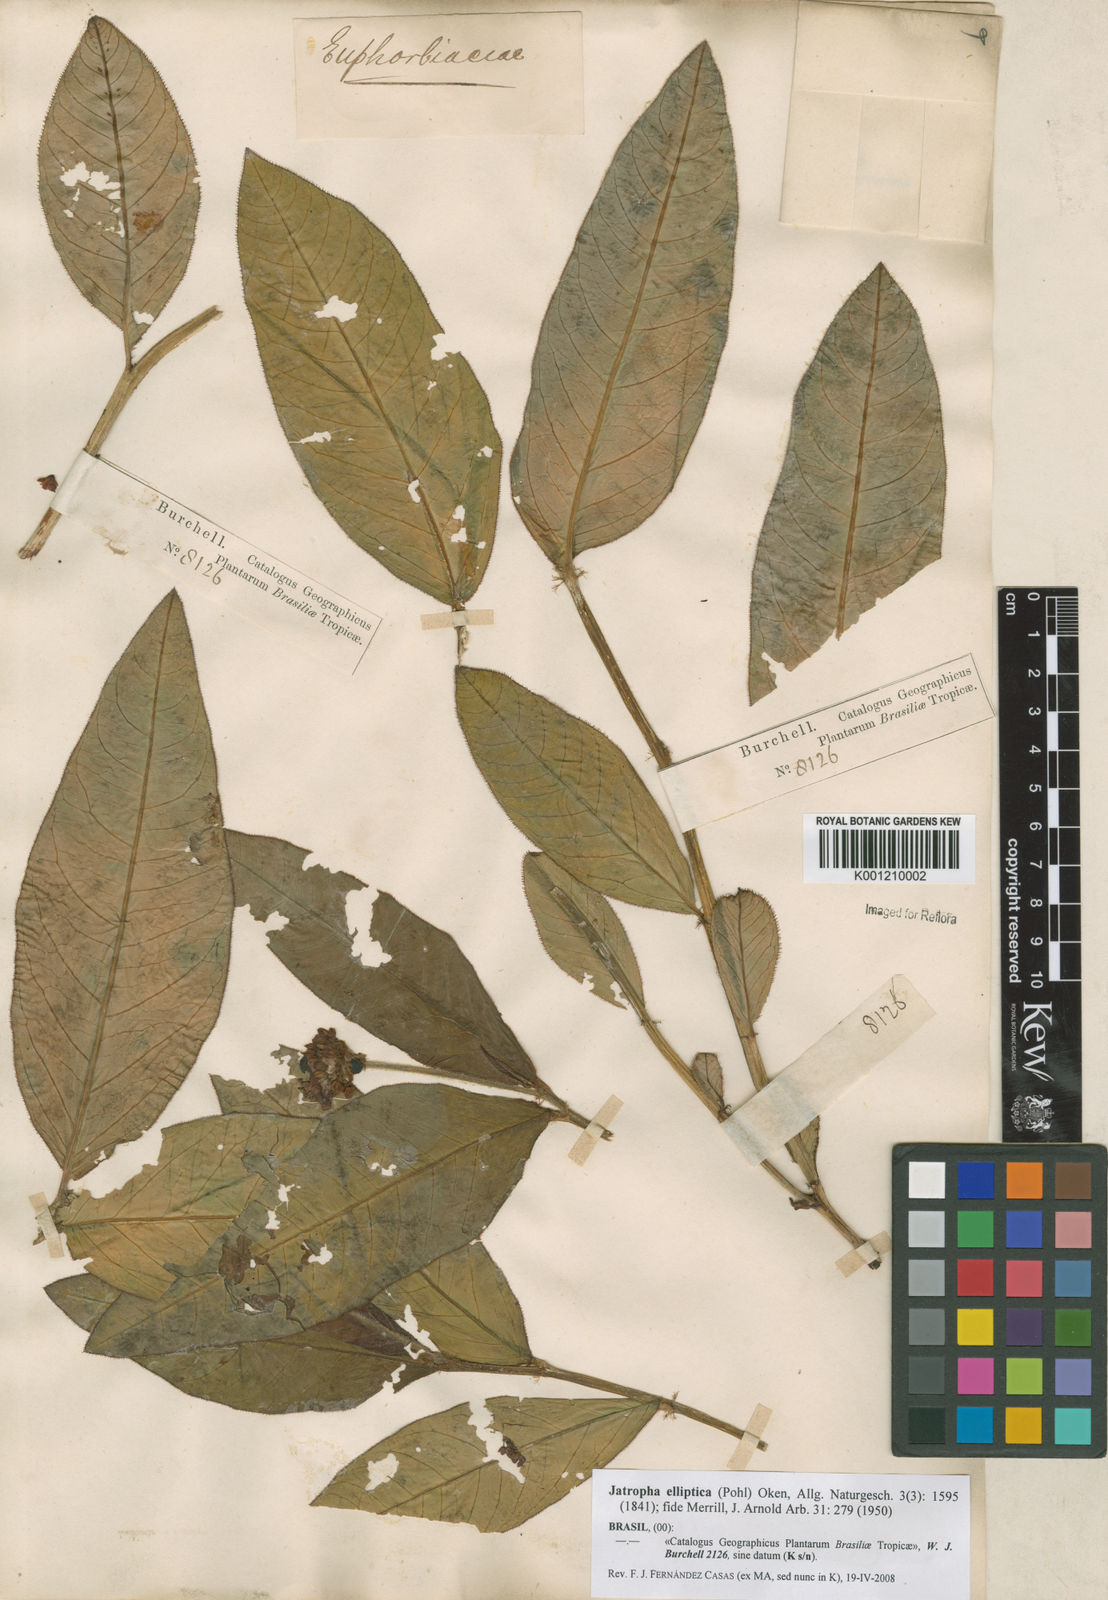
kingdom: Plantae
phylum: Tracheophyta
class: Magnoliopsida
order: Malpighiales
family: Euphorbiaceae
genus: Jatropha
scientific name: Jatropha elliptica
